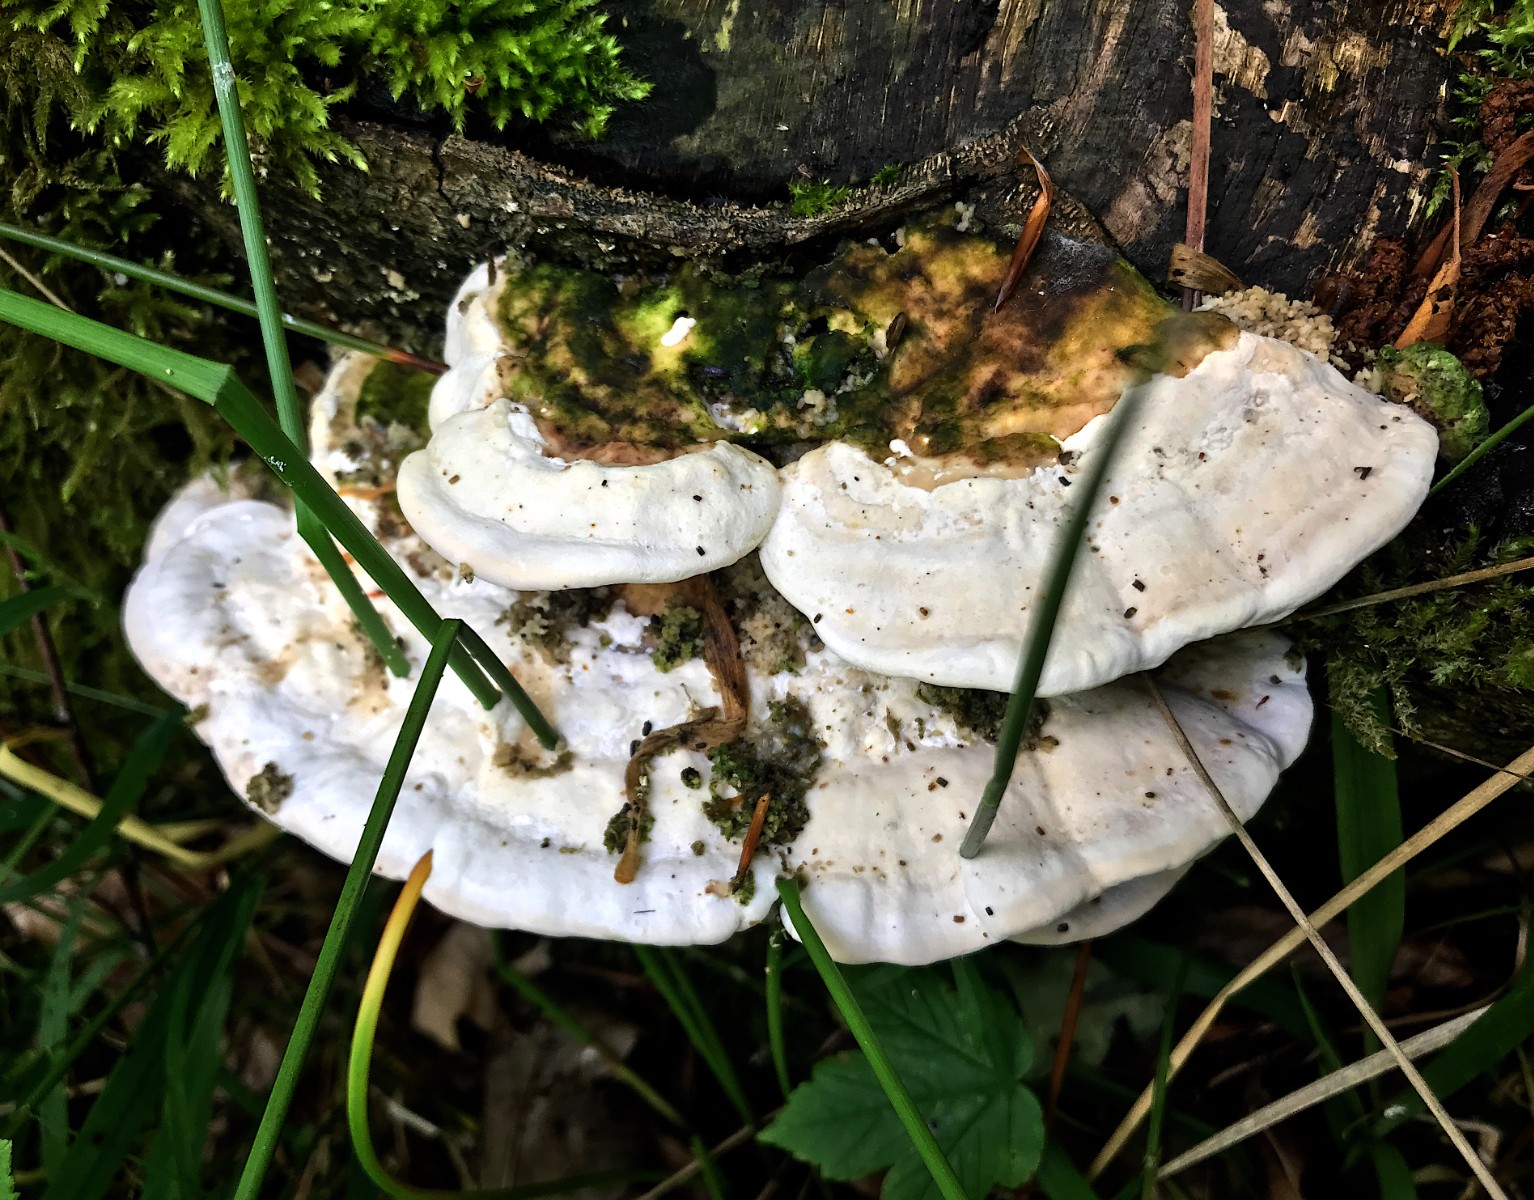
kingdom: Fungi
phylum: Basidiomycota
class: Agaricomycetes
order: Polyporales
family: Polyporaceae
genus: Trametes
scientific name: Trametes hirsuta
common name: håret læderporesvamp
